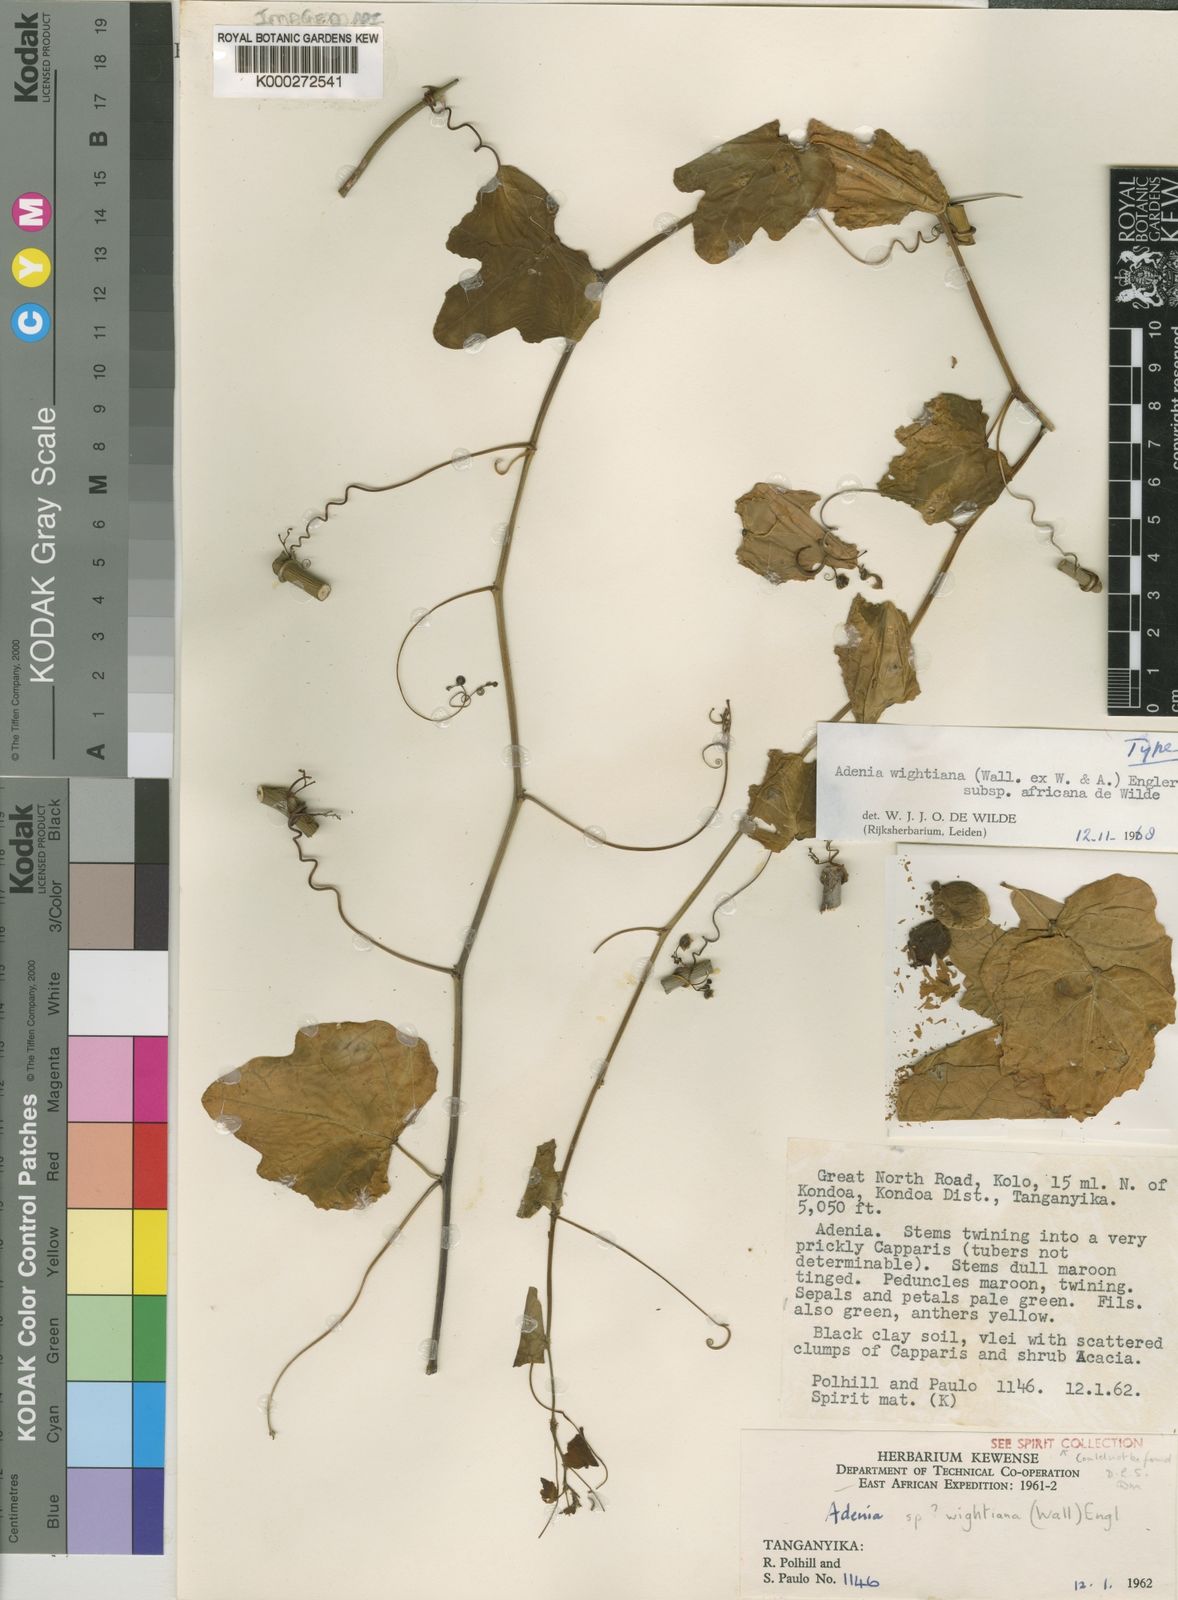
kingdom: Plantae
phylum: Tracheophyta
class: Magnoliopsida
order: Malpighiales
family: Passifloraceae
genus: Adenia
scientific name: Adenia
